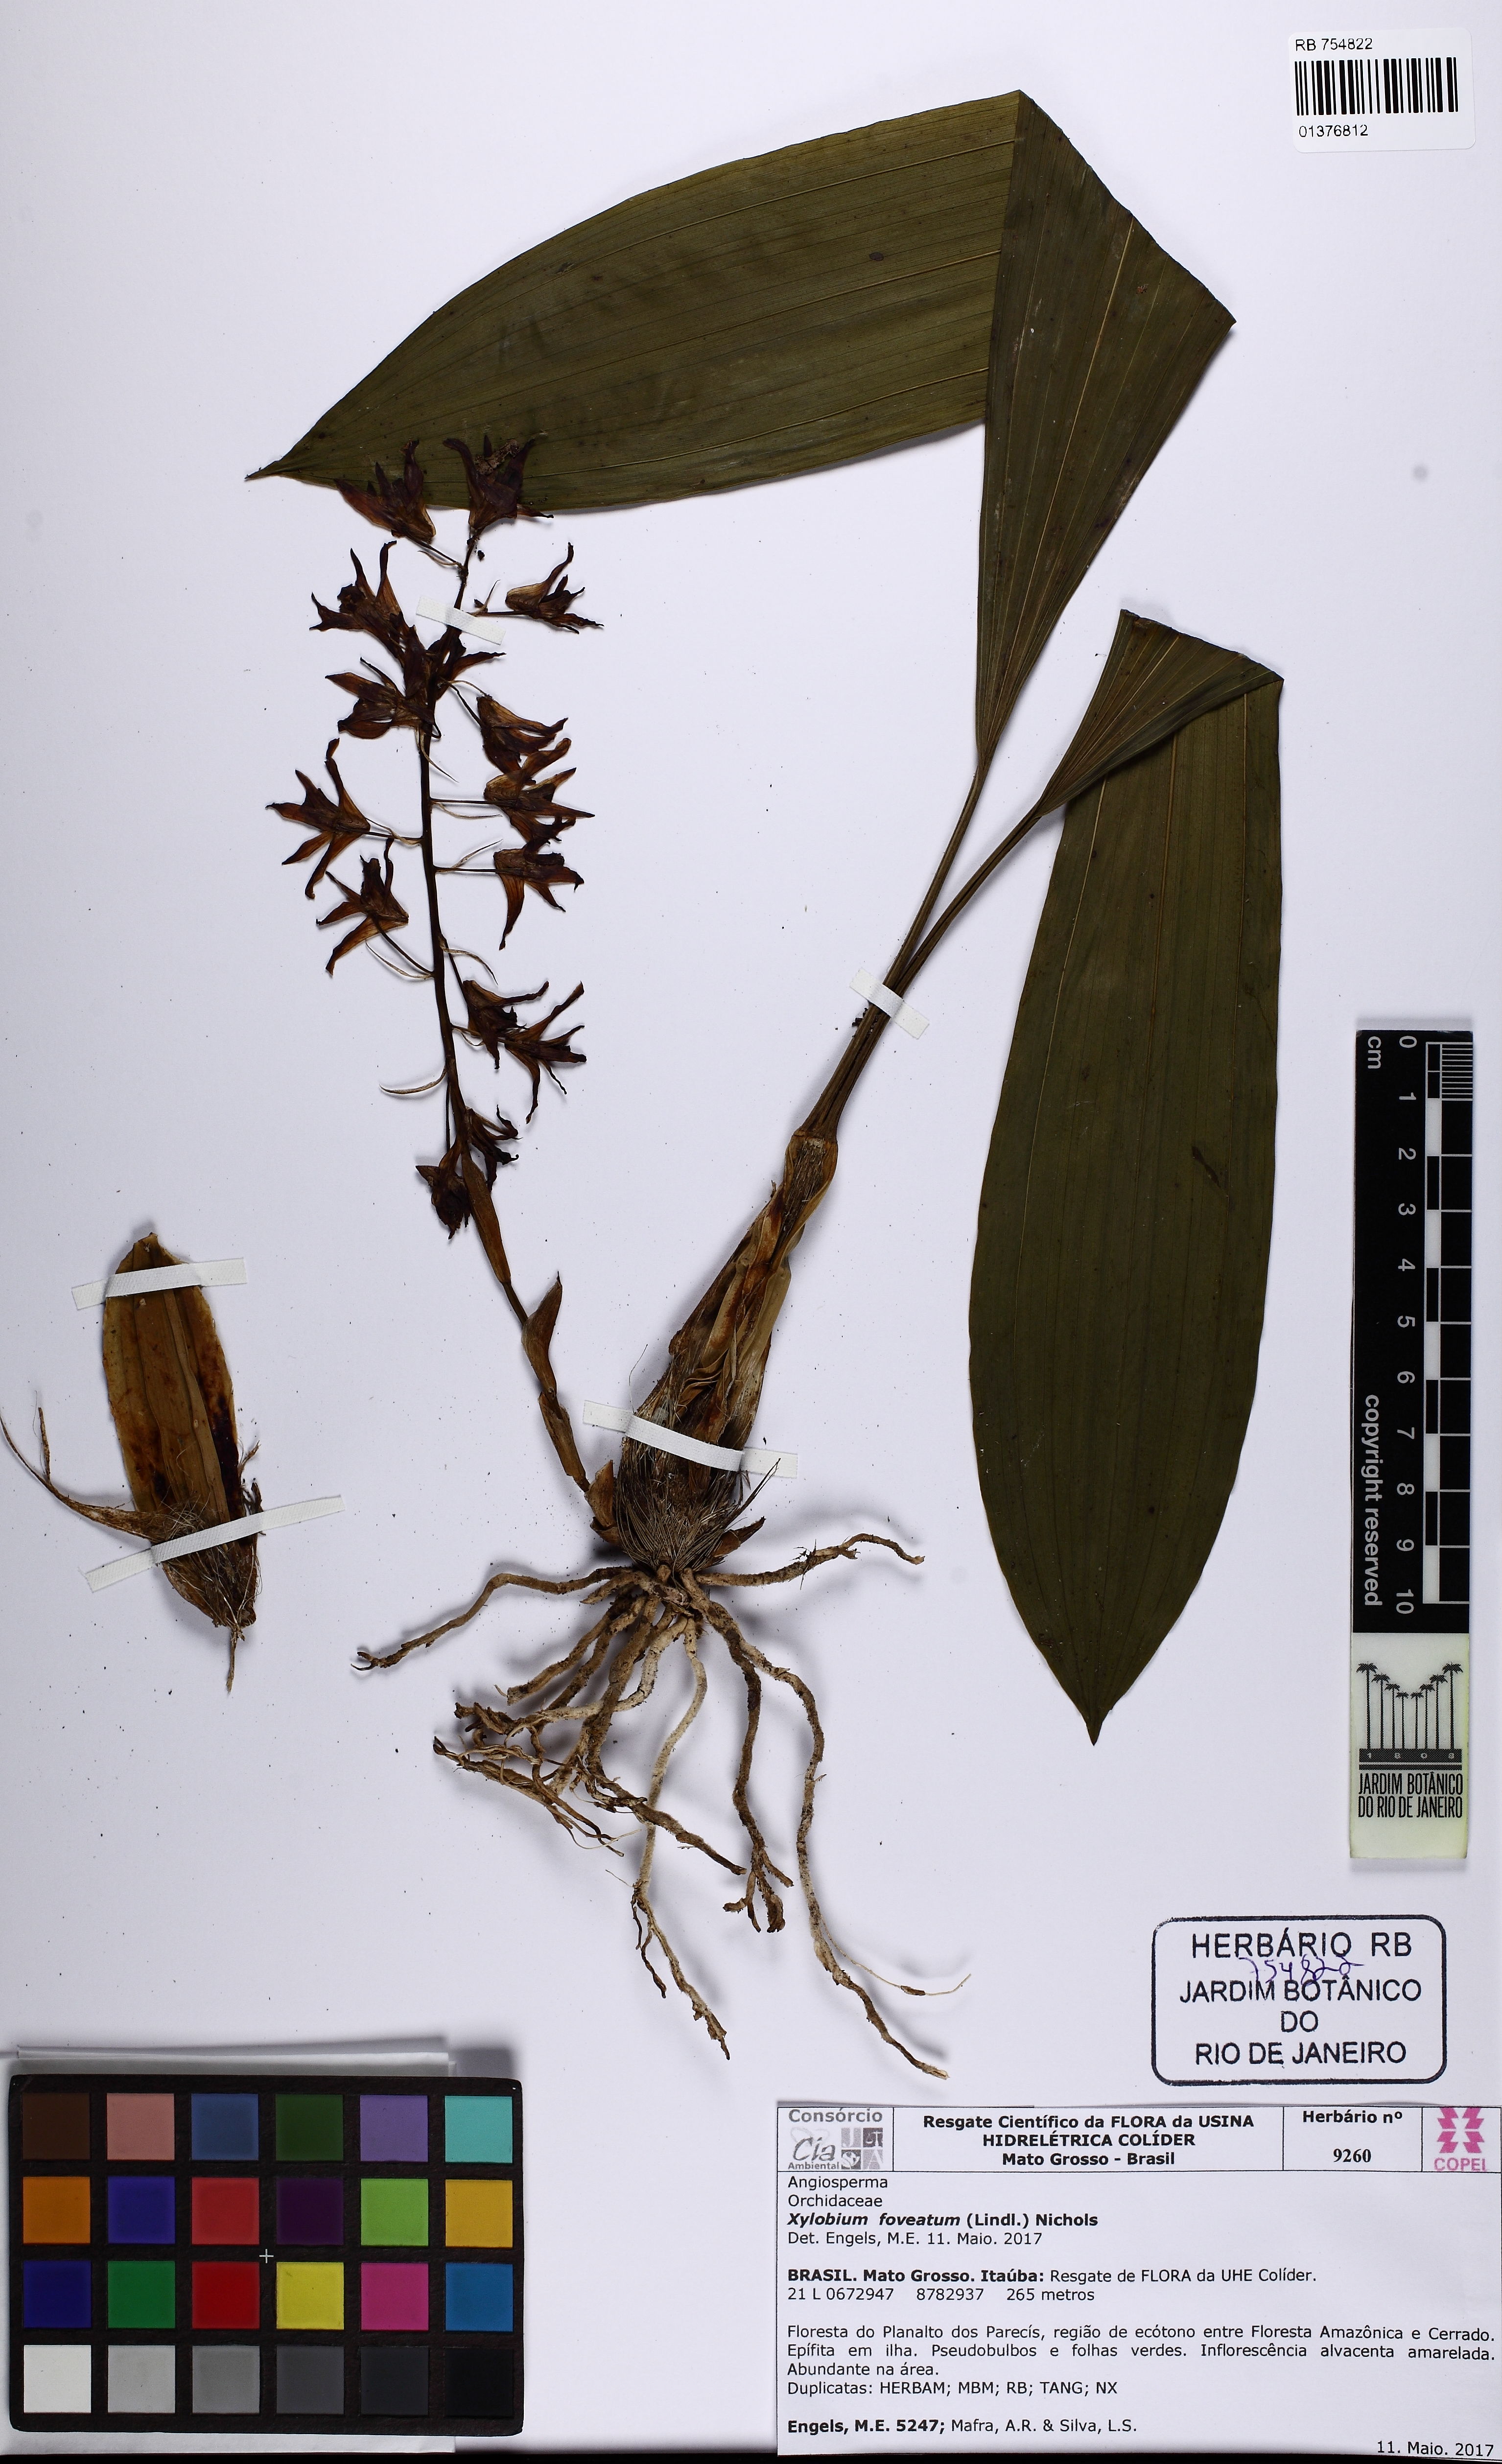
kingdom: Plantae
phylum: Tracheophyta
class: Liliopsida
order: Asparagales
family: Orchidaceae
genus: Xylobium
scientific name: Xylobium foveatum
